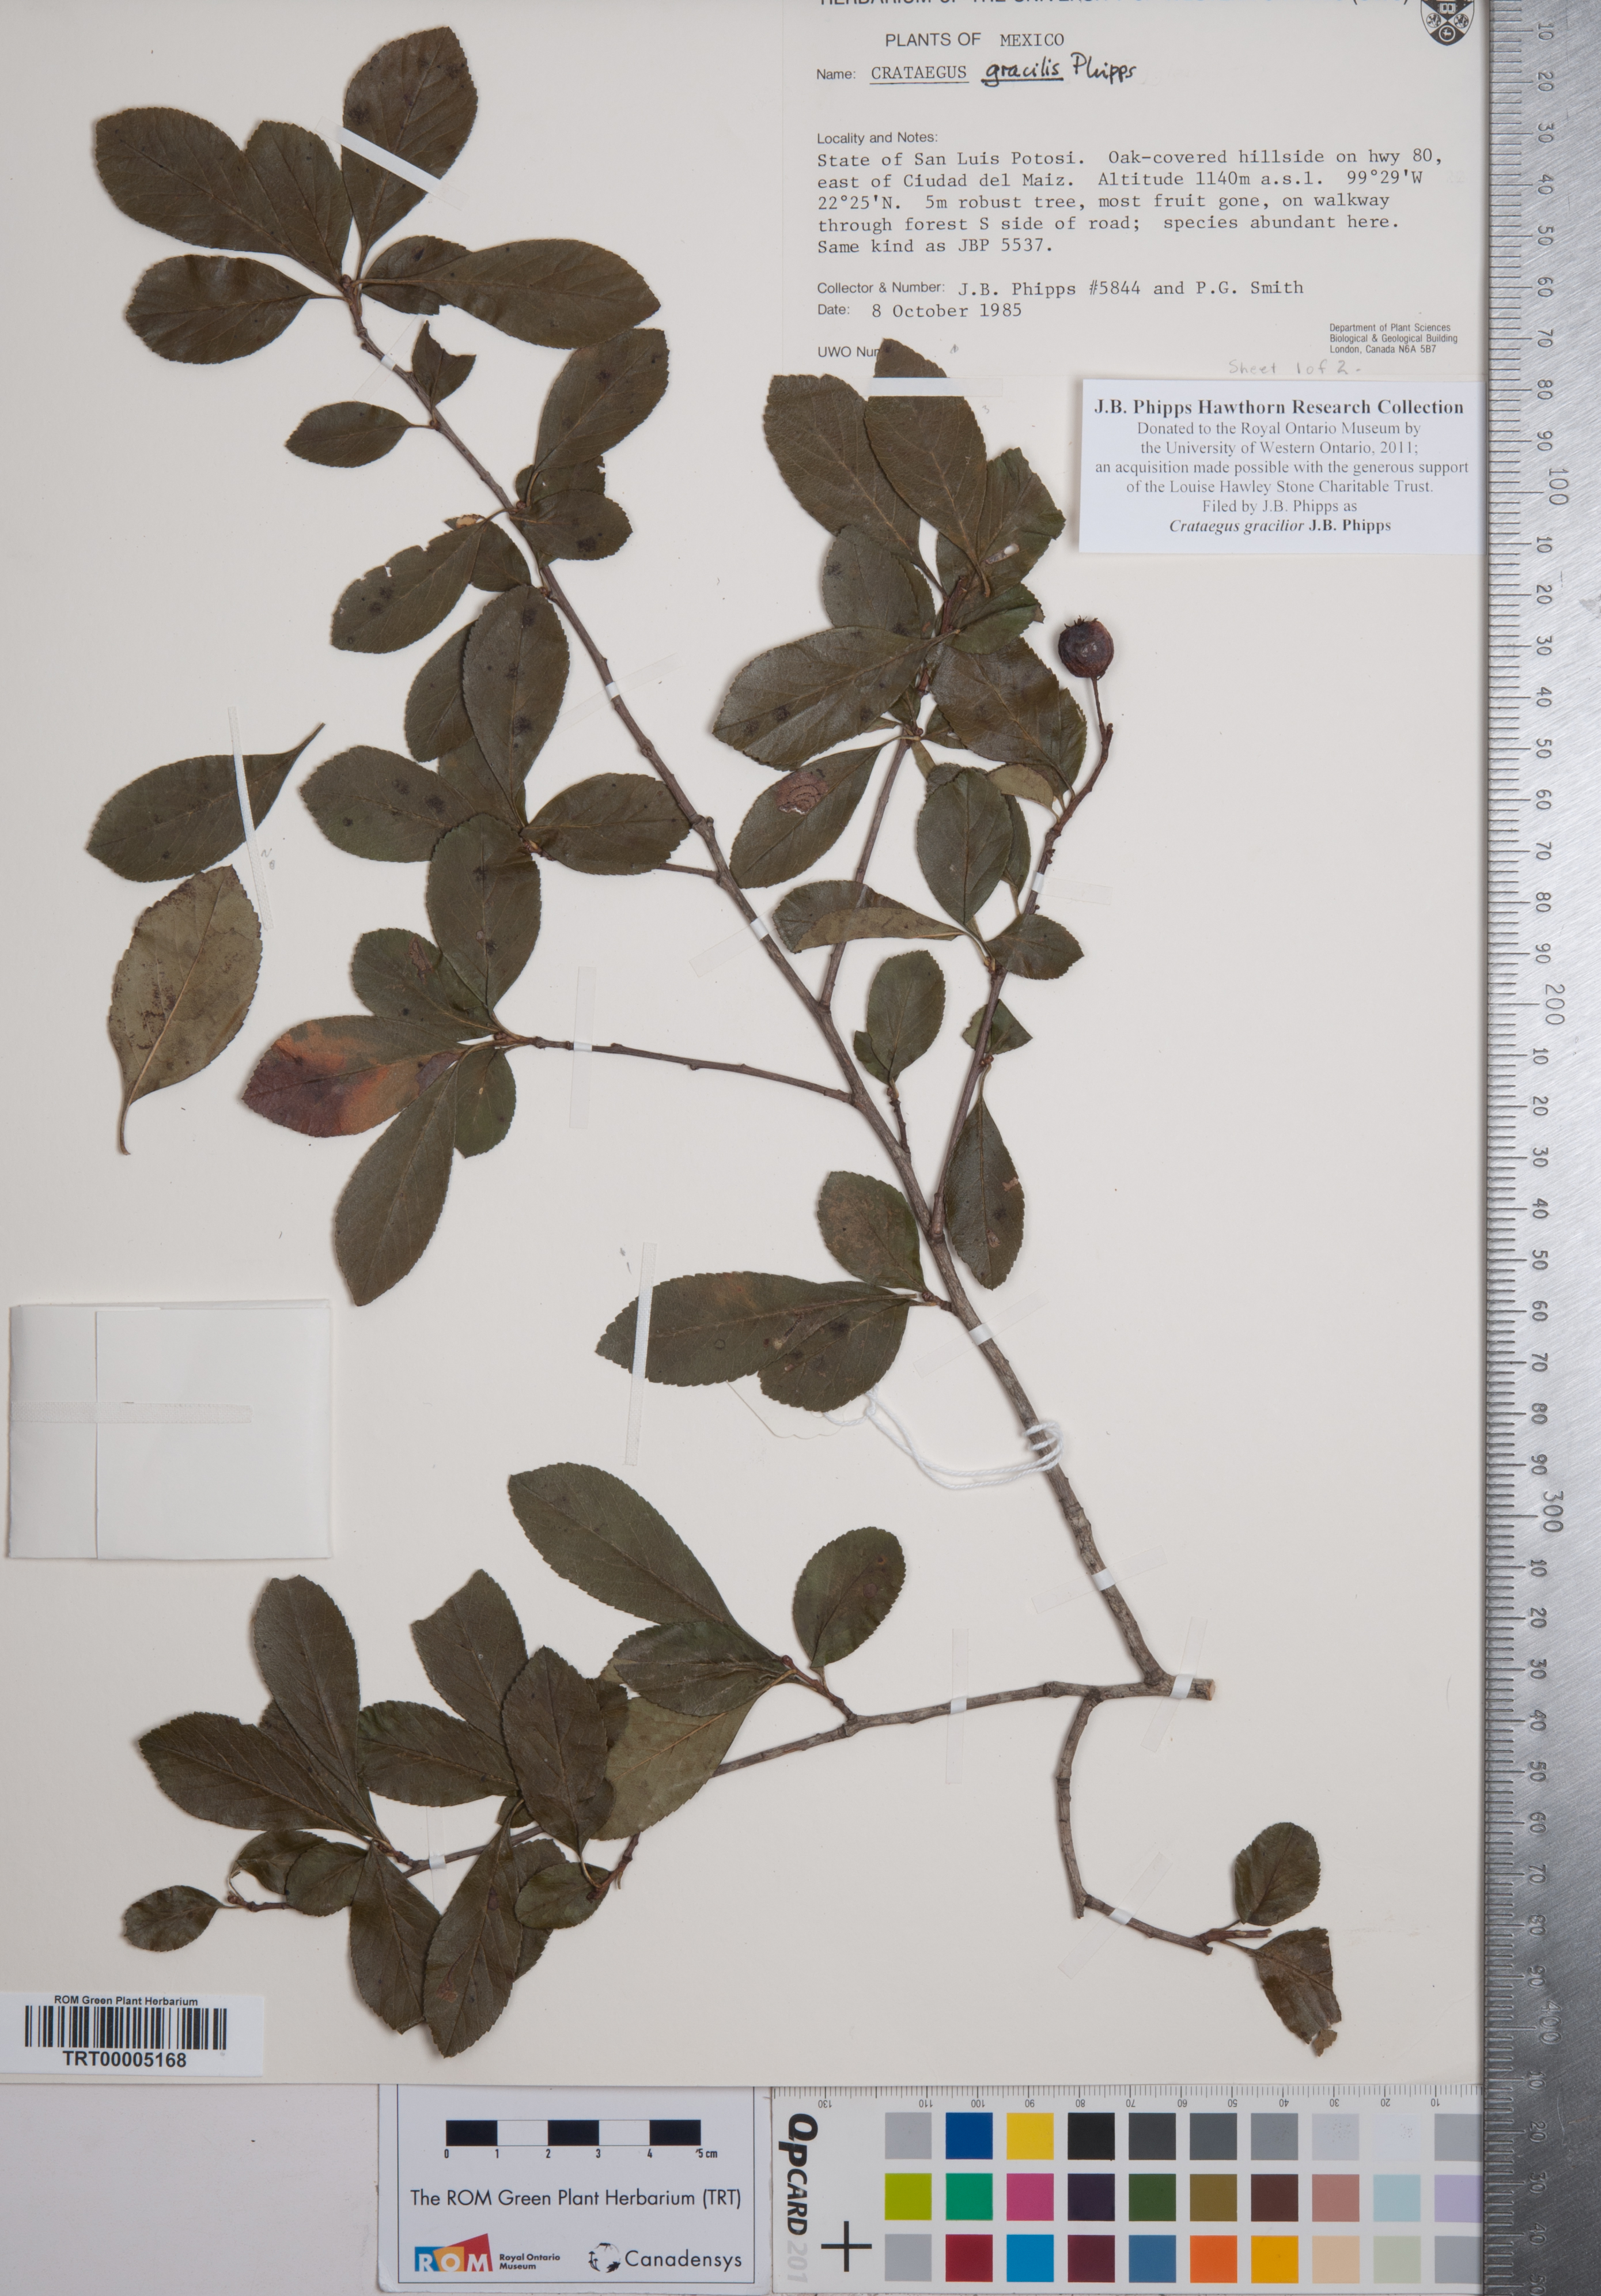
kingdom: Plantae
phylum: Tracheophyta
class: Magnoliopsida
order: Rosales
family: Rosaceae
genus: Crataegus
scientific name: Crataegus gracilior
